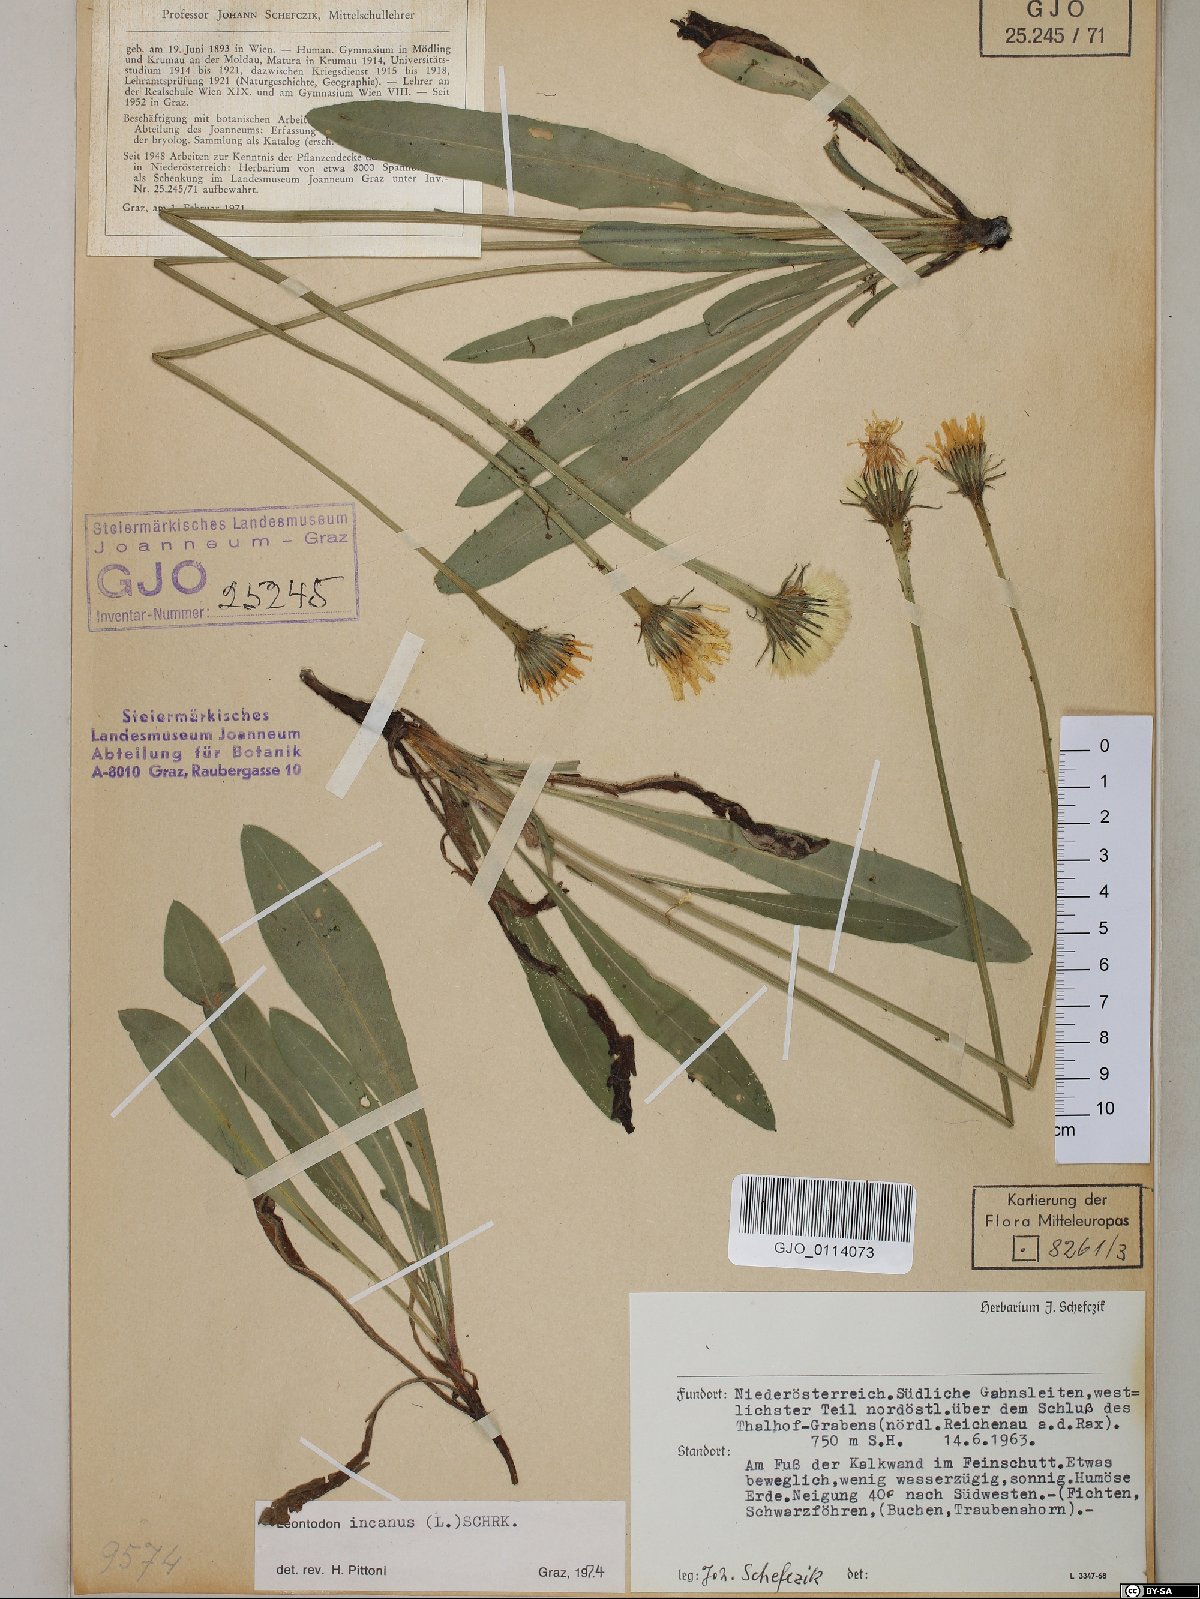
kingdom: Plantae
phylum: Tracheophyta
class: Magnoliopsida
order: Asterales
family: Asteraceae
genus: Leontodon
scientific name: Leontodon incanus
